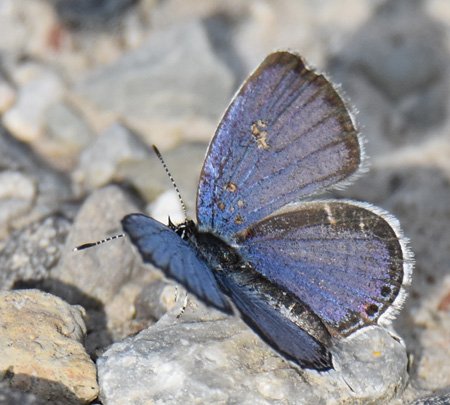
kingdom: Animalia
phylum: Arthropoda
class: Insecta
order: Lepidoptera
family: Lycaenidae
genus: Elkalyce
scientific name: Elkalyce comyntas
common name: Eastern Tailed-Blue
